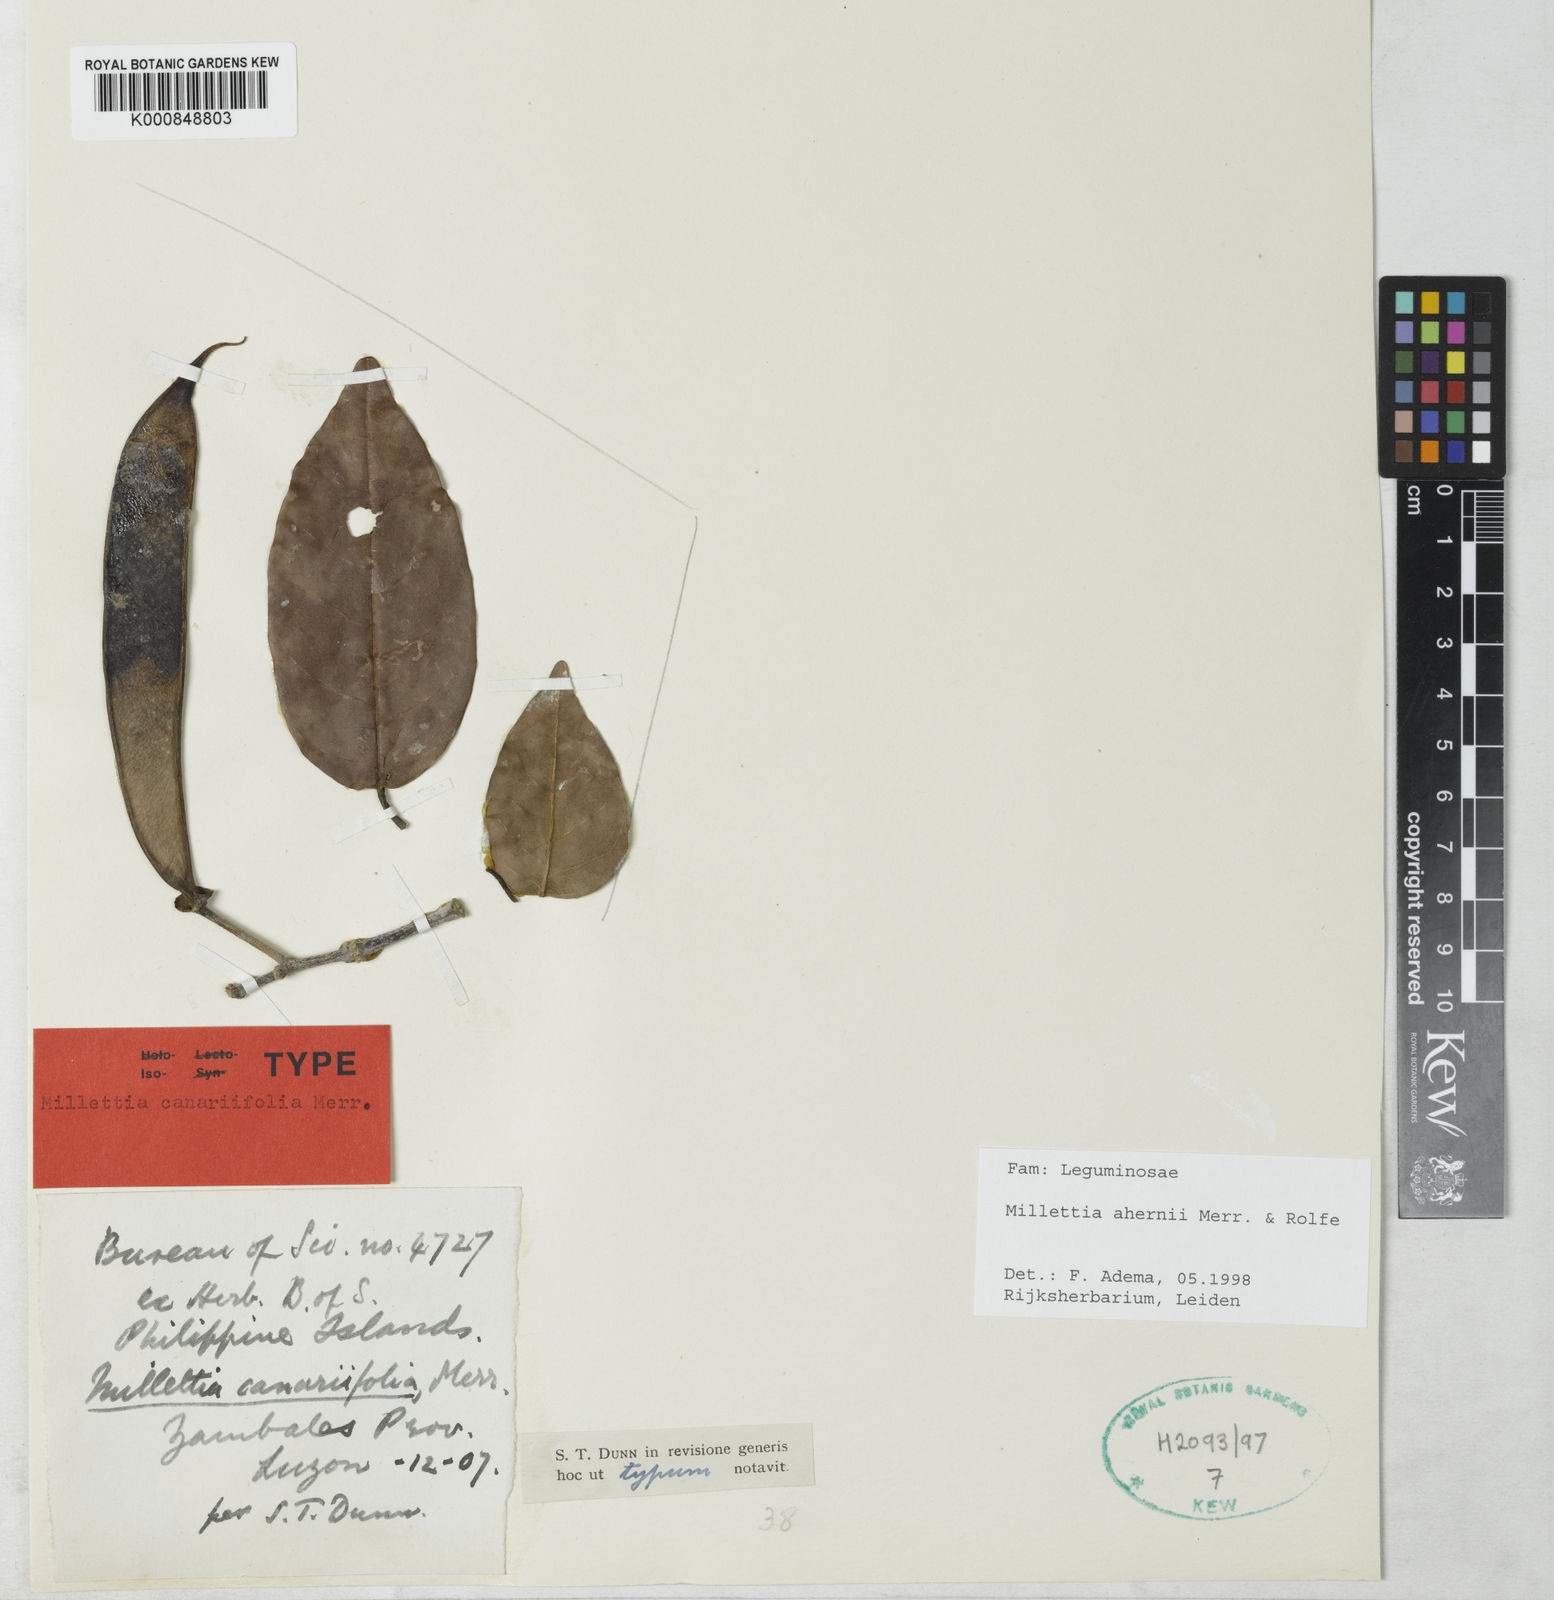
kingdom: Plantae
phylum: Tracheophyta
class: Magnoliopsida
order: Fabales
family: Fabaceae
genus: Millettia
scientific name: Millettia ahernii
